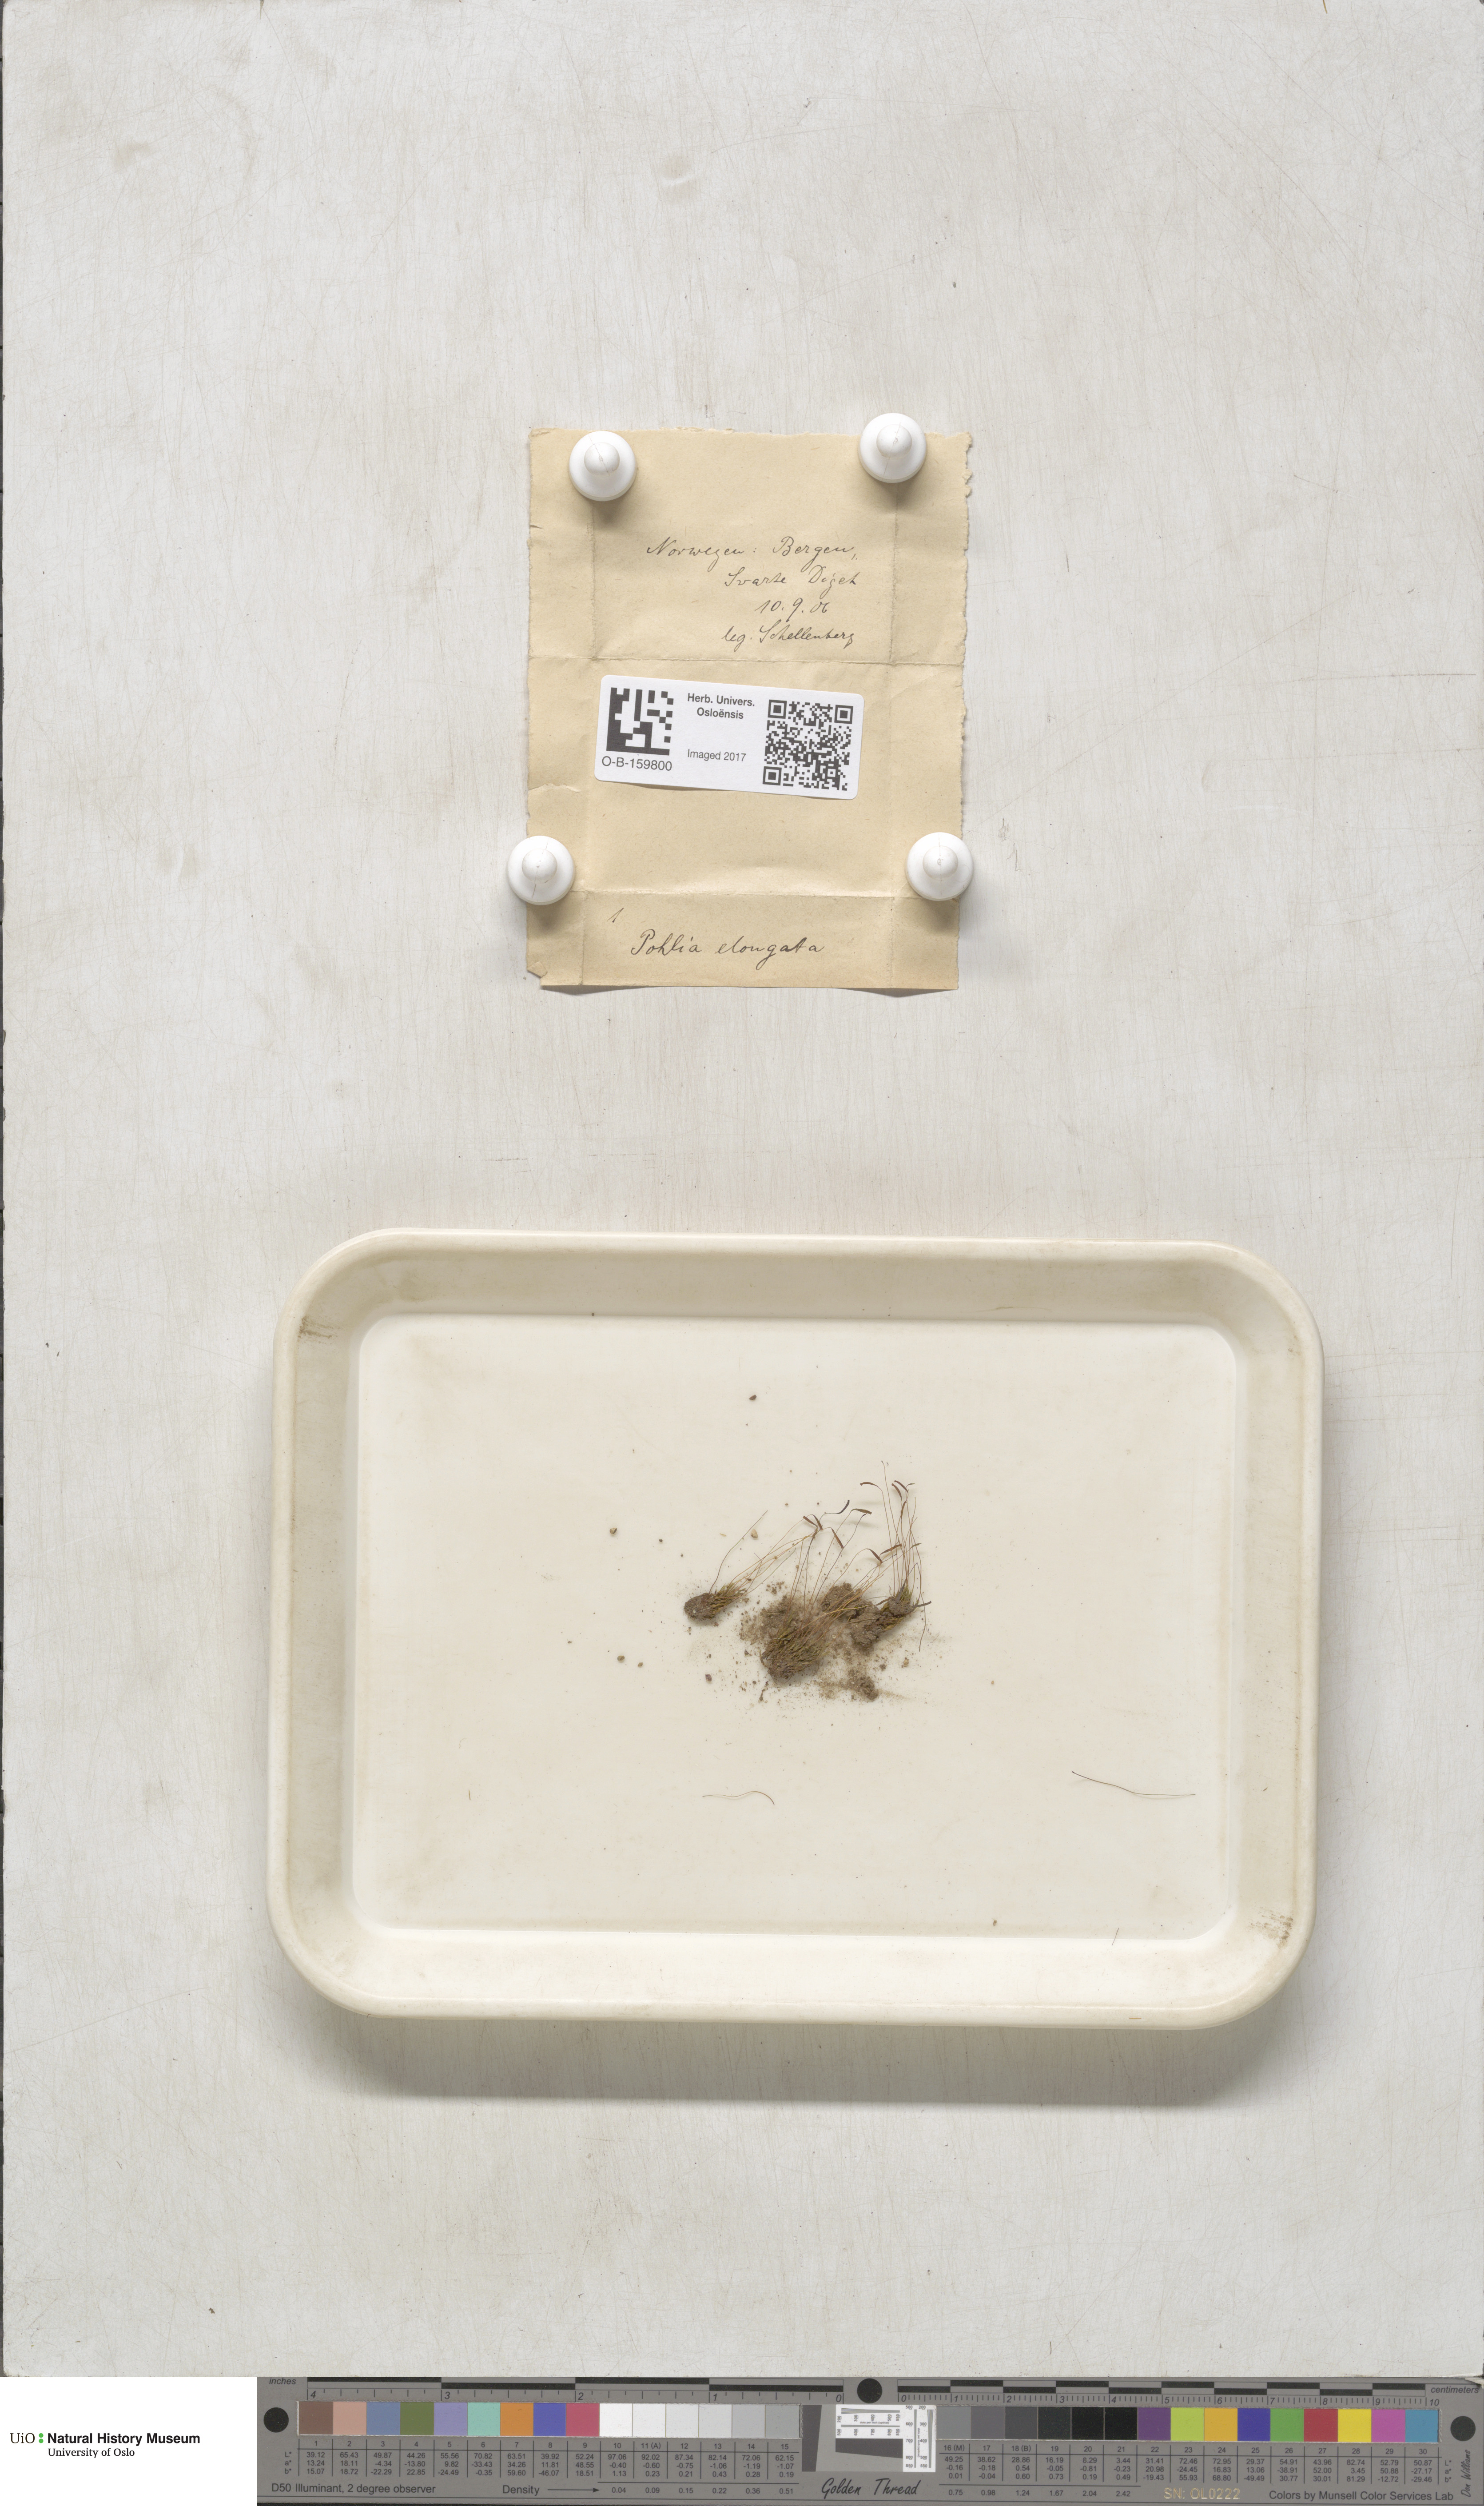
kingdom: Plantae
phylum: Bryophyta
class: Bryopsida
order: Bryales
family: Mniaceae
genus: Pohlia
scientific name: Pohlia elongata
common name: Long-fruited thread-moss
